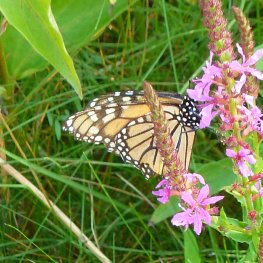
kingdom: Animalia
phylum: Arthropoda
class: Insecta
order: Lepidoptera
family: Nymphalidae
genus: Danaus
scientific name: Danaus plexippus
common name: Monarch
